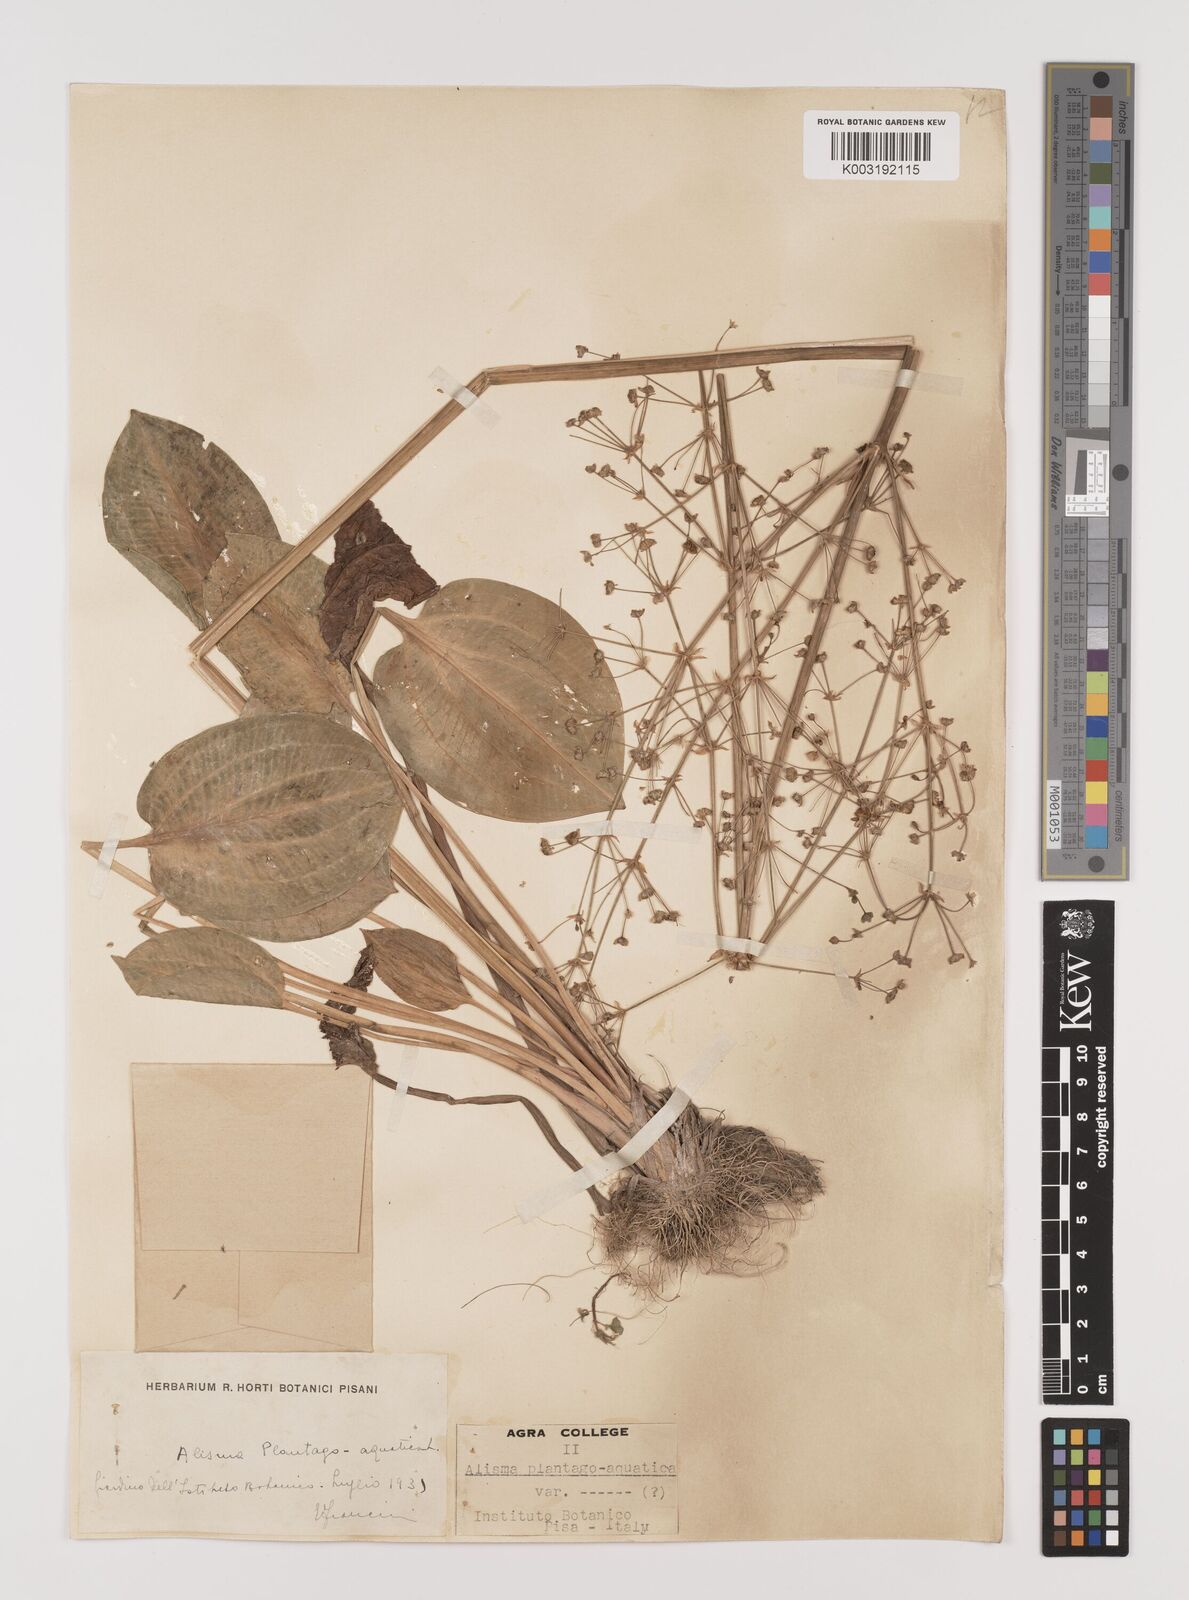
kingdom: Plantae
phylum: Tracheophyta
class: Liliopsida
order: Alismatales
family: Alismataceae
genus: Alisma
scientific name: Alisma plantago-aquatica
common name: Water-plantain
